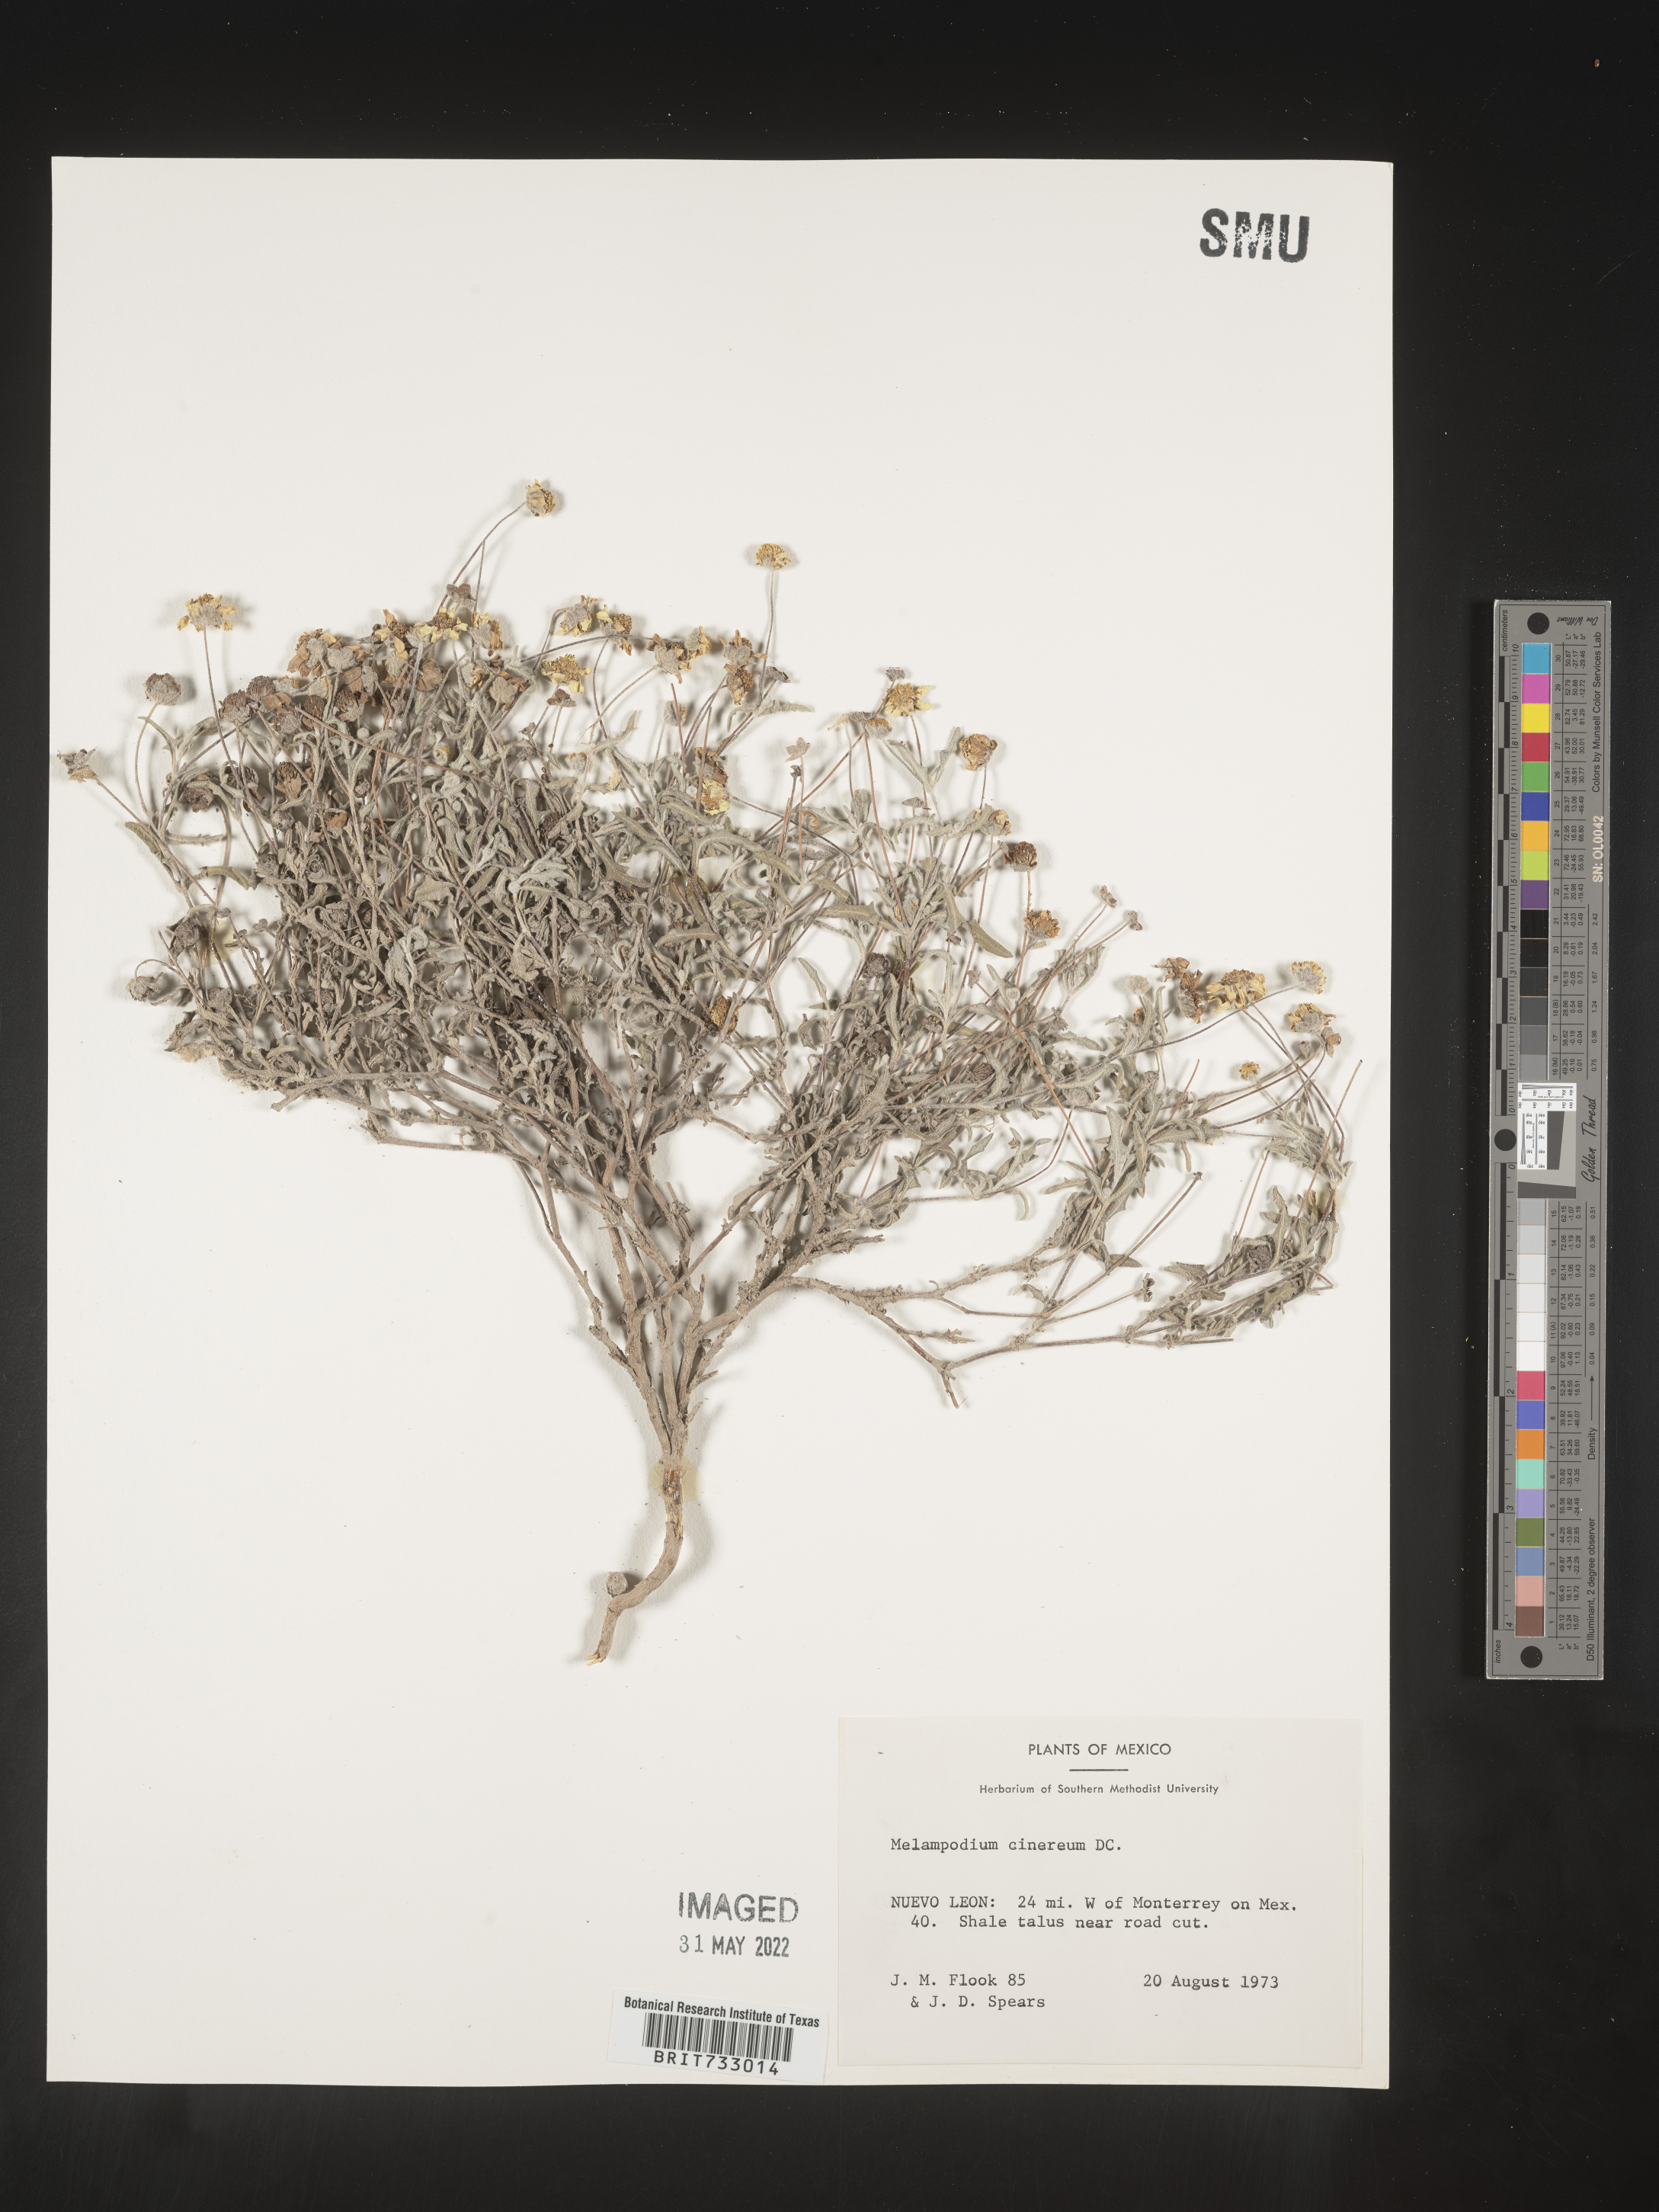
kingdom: Plantae
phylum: Tracheophyta
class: Magnoliopsida
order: Asterales
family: Asteraceae
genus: Melampodium
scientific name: Melampodium
